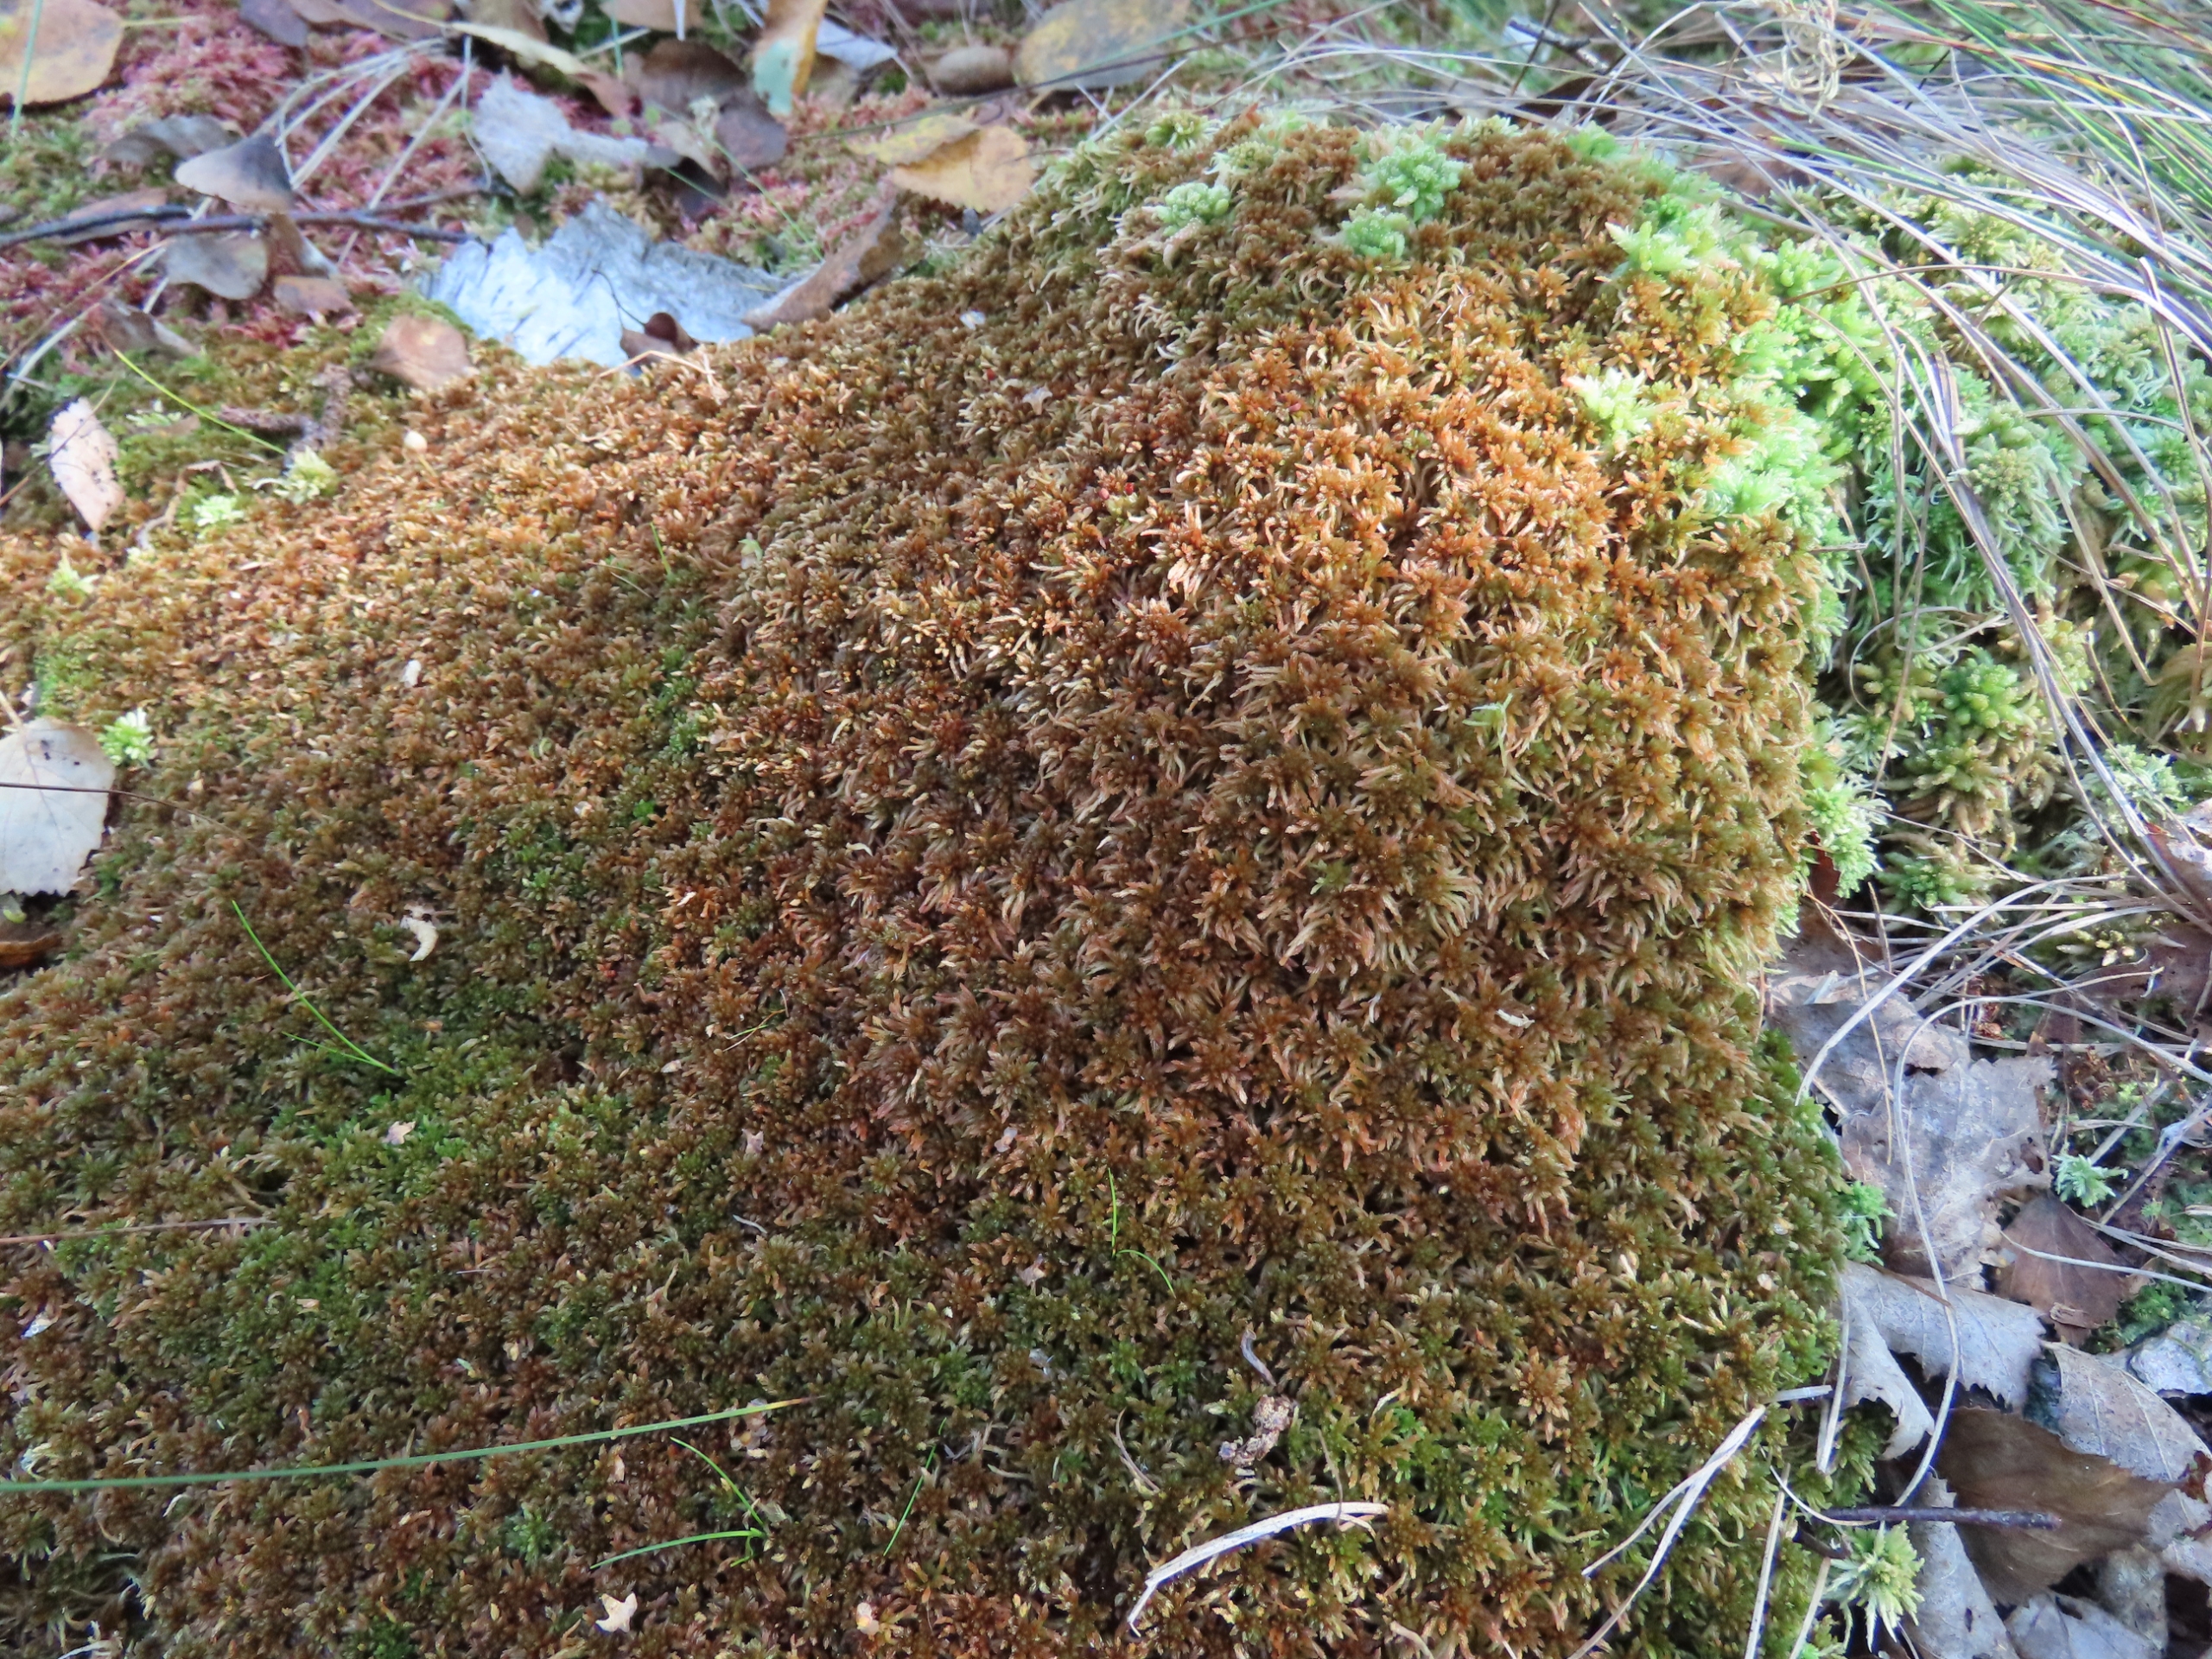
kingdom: Plantae
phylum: Bryophyta
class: Sphagnopsida
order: Sphagnales
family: Sphagnaceae
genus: Sphagnum
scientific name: Sphagnum fuscum
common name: Rustbrun tørvemos
